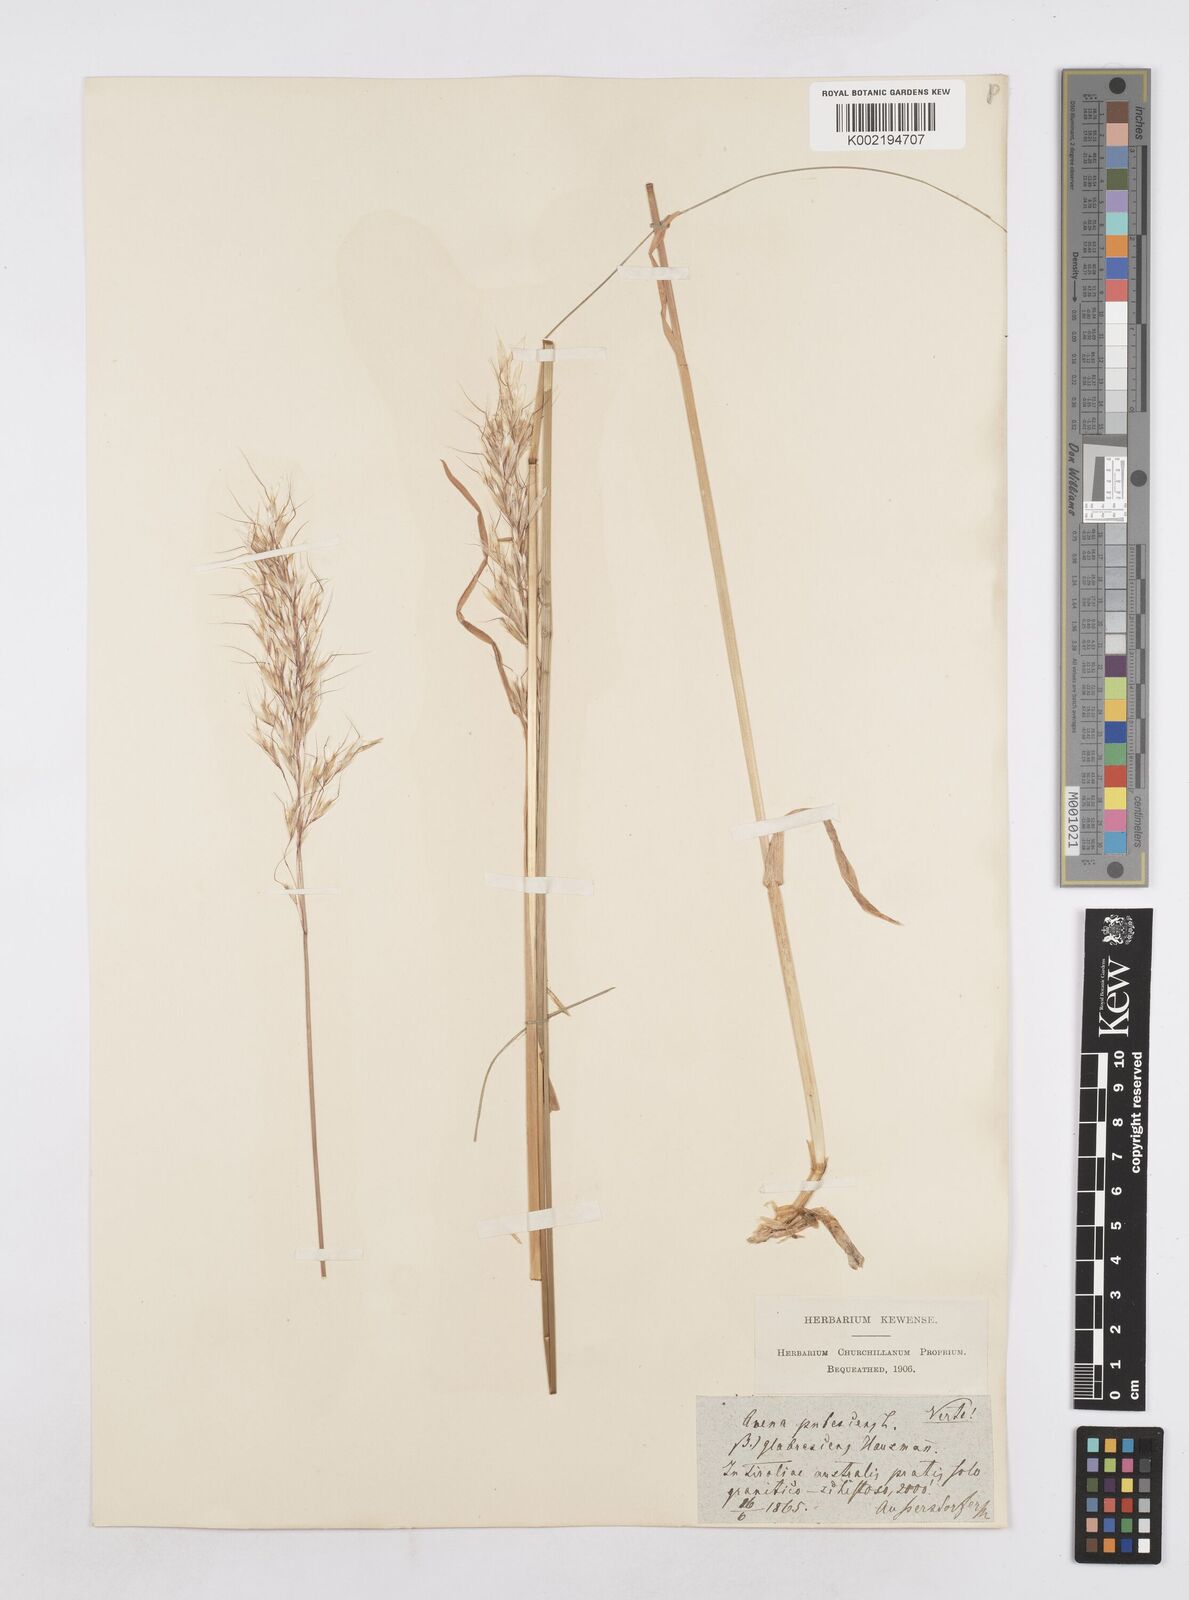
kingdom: Plantae
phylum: Tracheophyta
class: Liliopsida
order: Poales
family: Poaceae
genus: Avenula
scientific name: Avenula pubescens
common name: Downy alpine oatgrass
